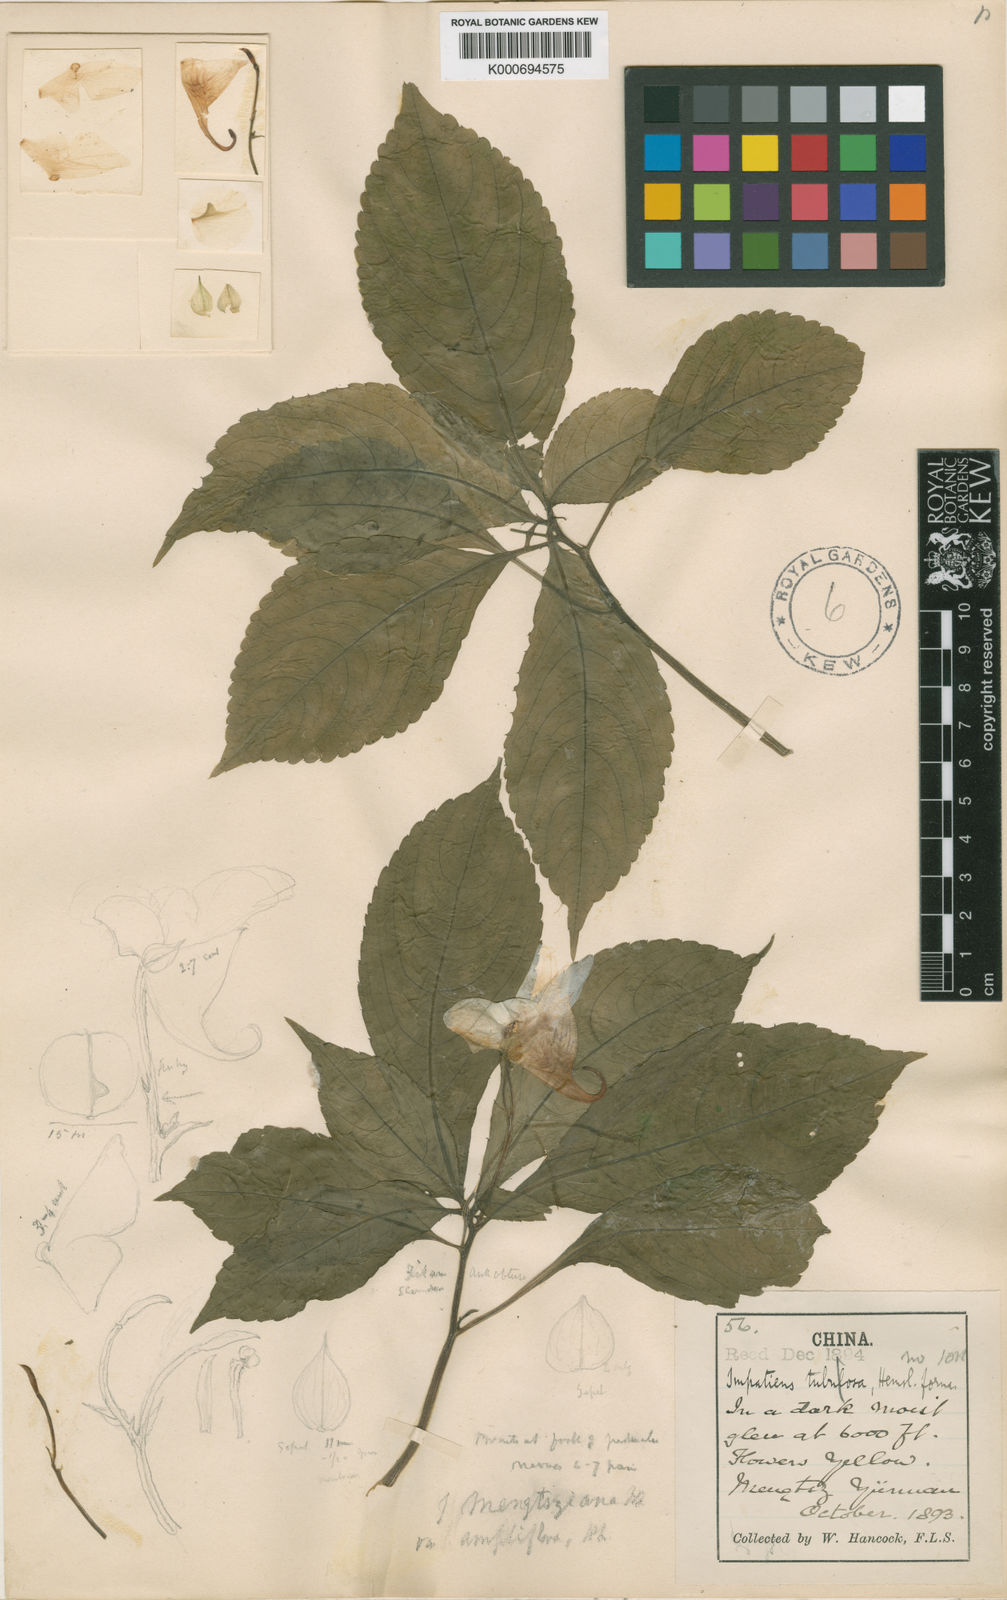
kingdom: Plantae
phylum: Tracheophyta
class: Magnoliopsida
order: Ericales
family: Balsaminaceae
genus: Impatiens
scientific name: Impatiens pulchra
